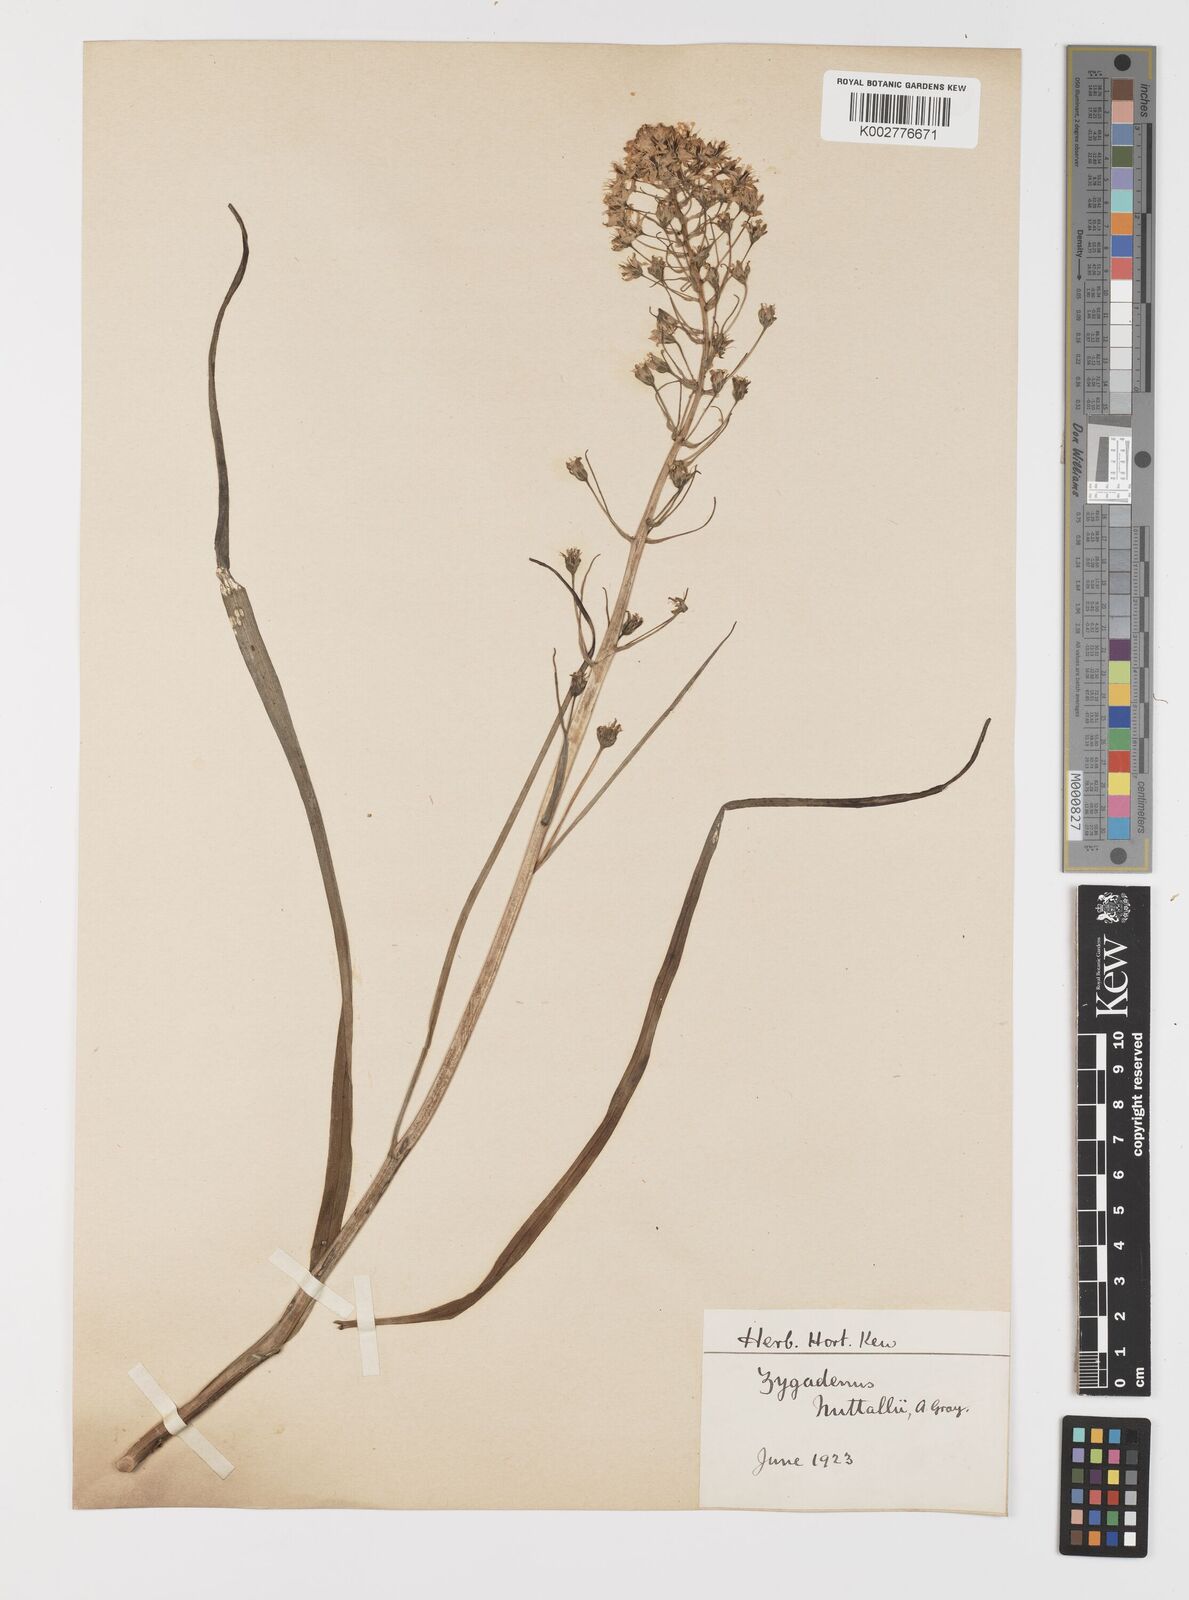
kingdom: Plantae
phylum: Tracheophyta
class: Liliopsida
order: Liliales
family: Melanthiaceae
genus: Toxicoscordion
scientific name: Toxicoscordion nuttallii
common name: Poison sego
